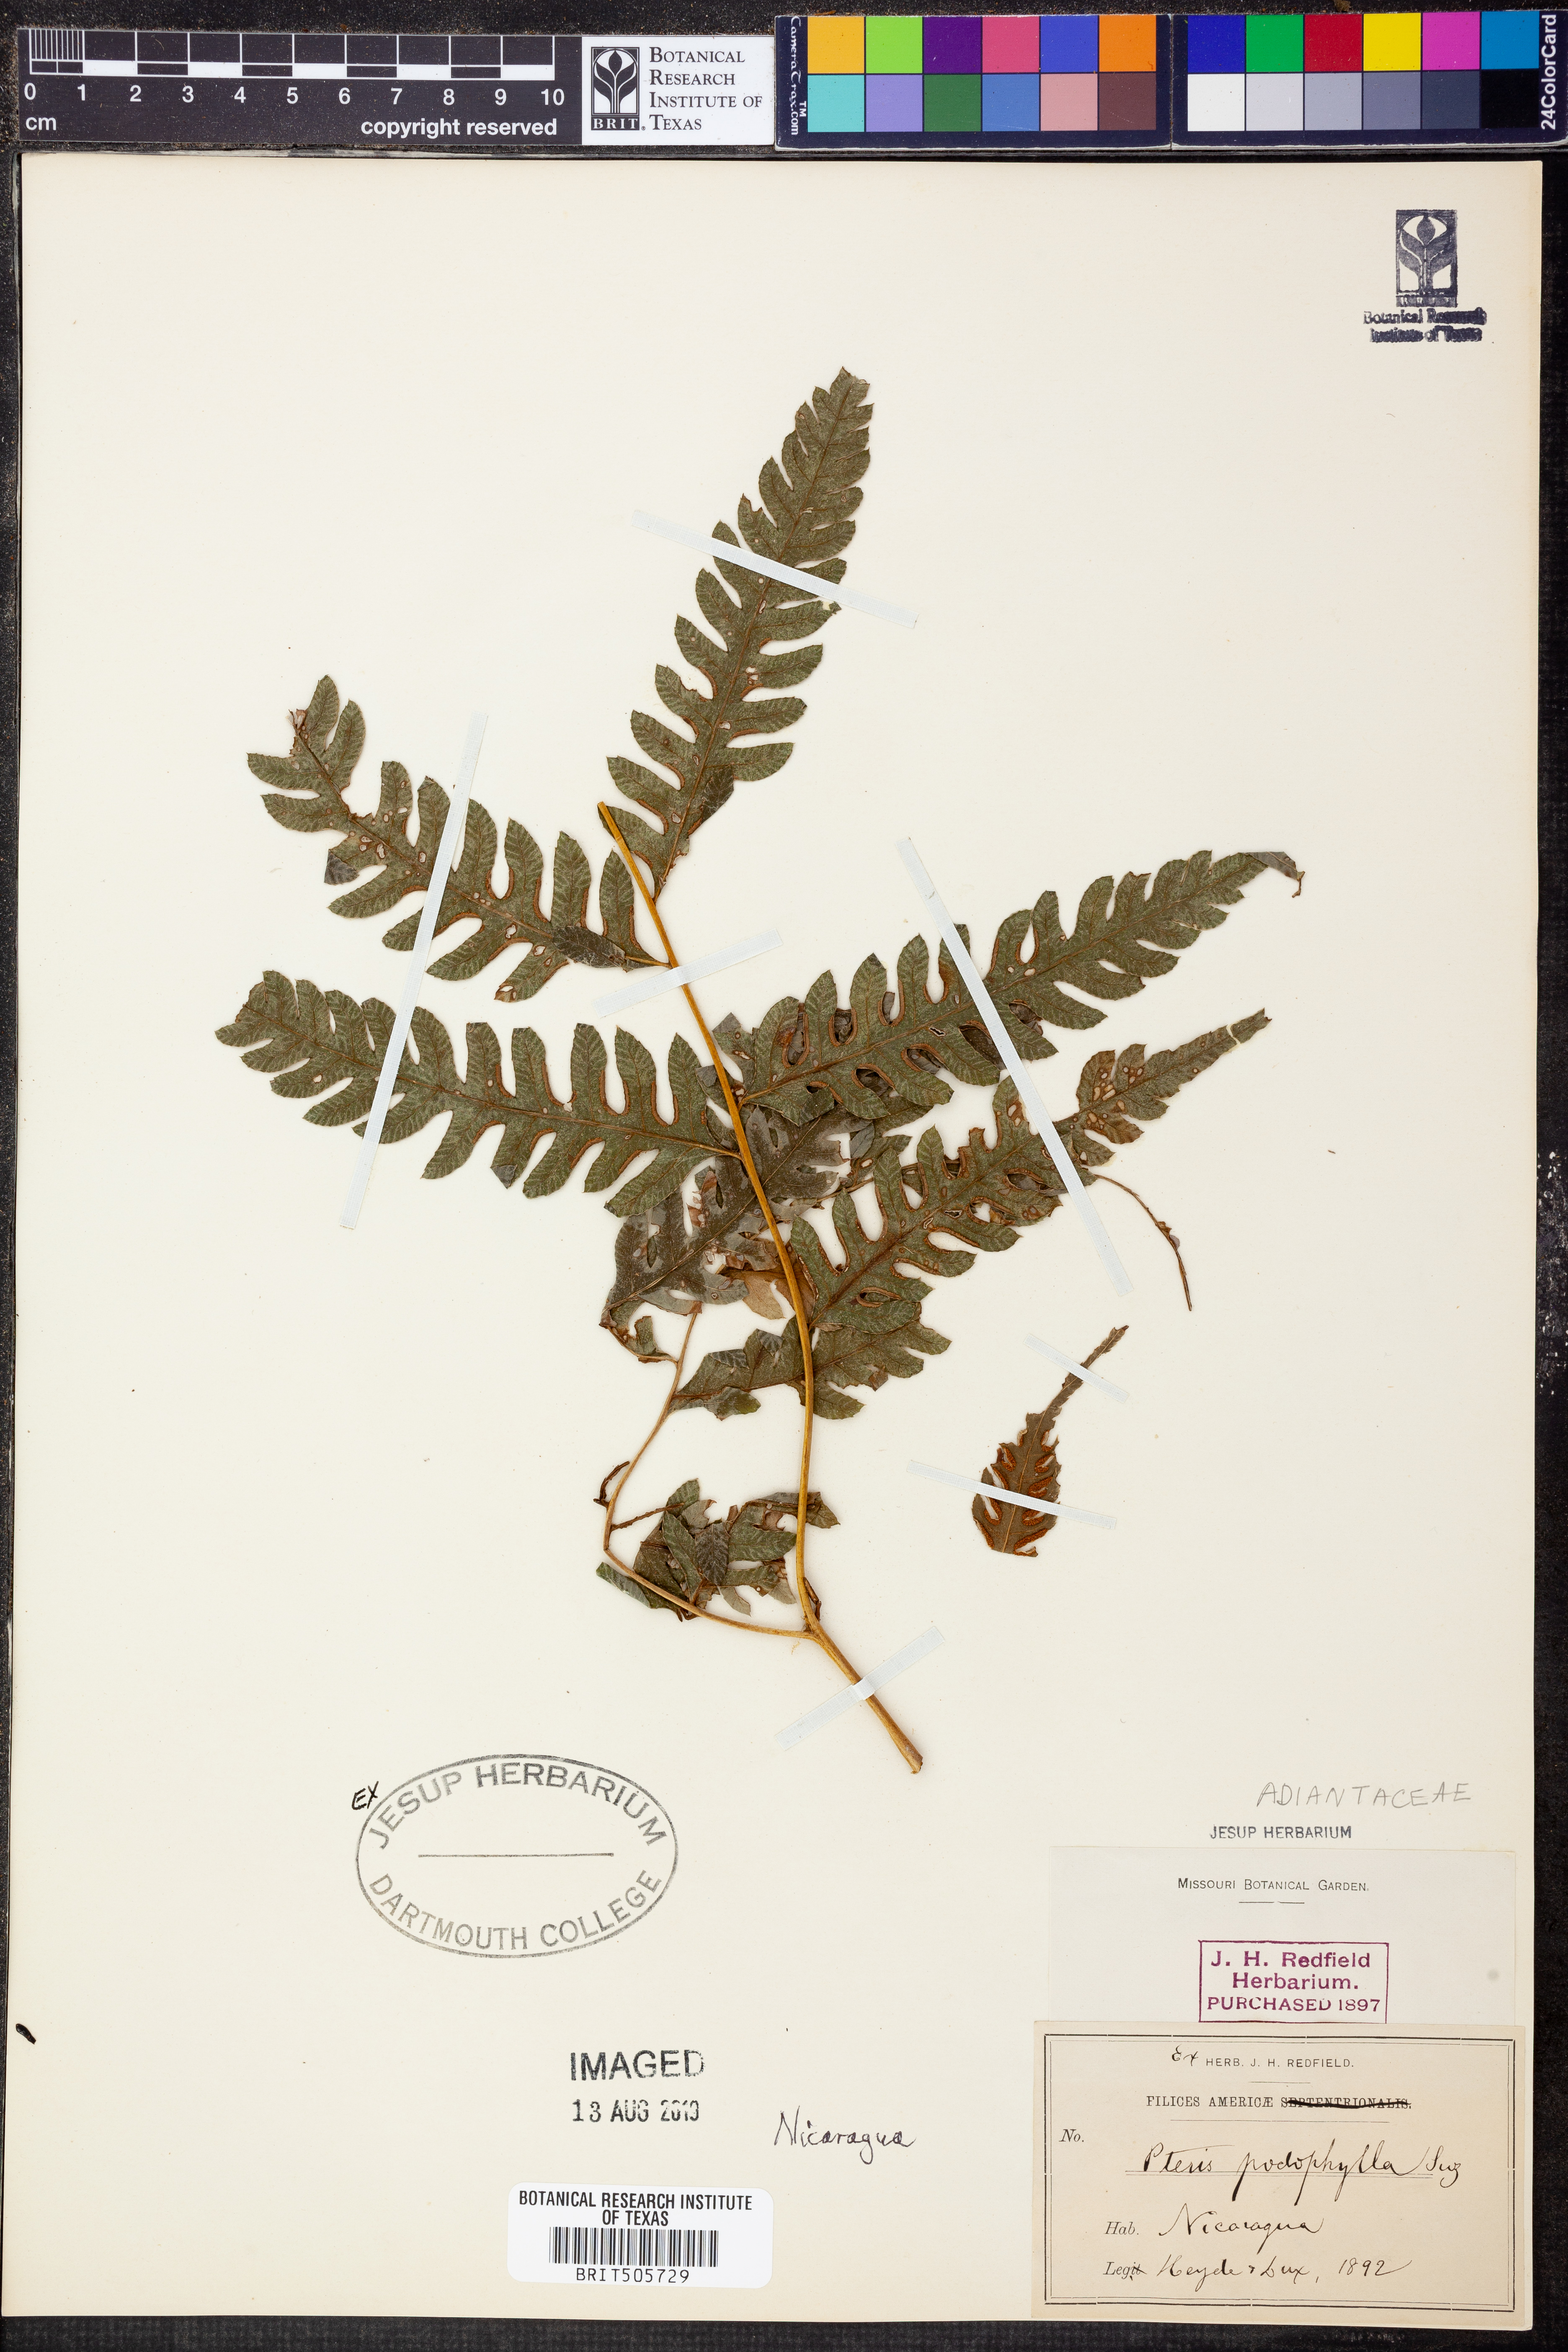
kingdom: Plantae
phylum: Tracheophyta
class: Polypodiopsida
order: Polypodiales
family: Pteridaceae
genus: Pteris
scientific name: Pteris podophylla
